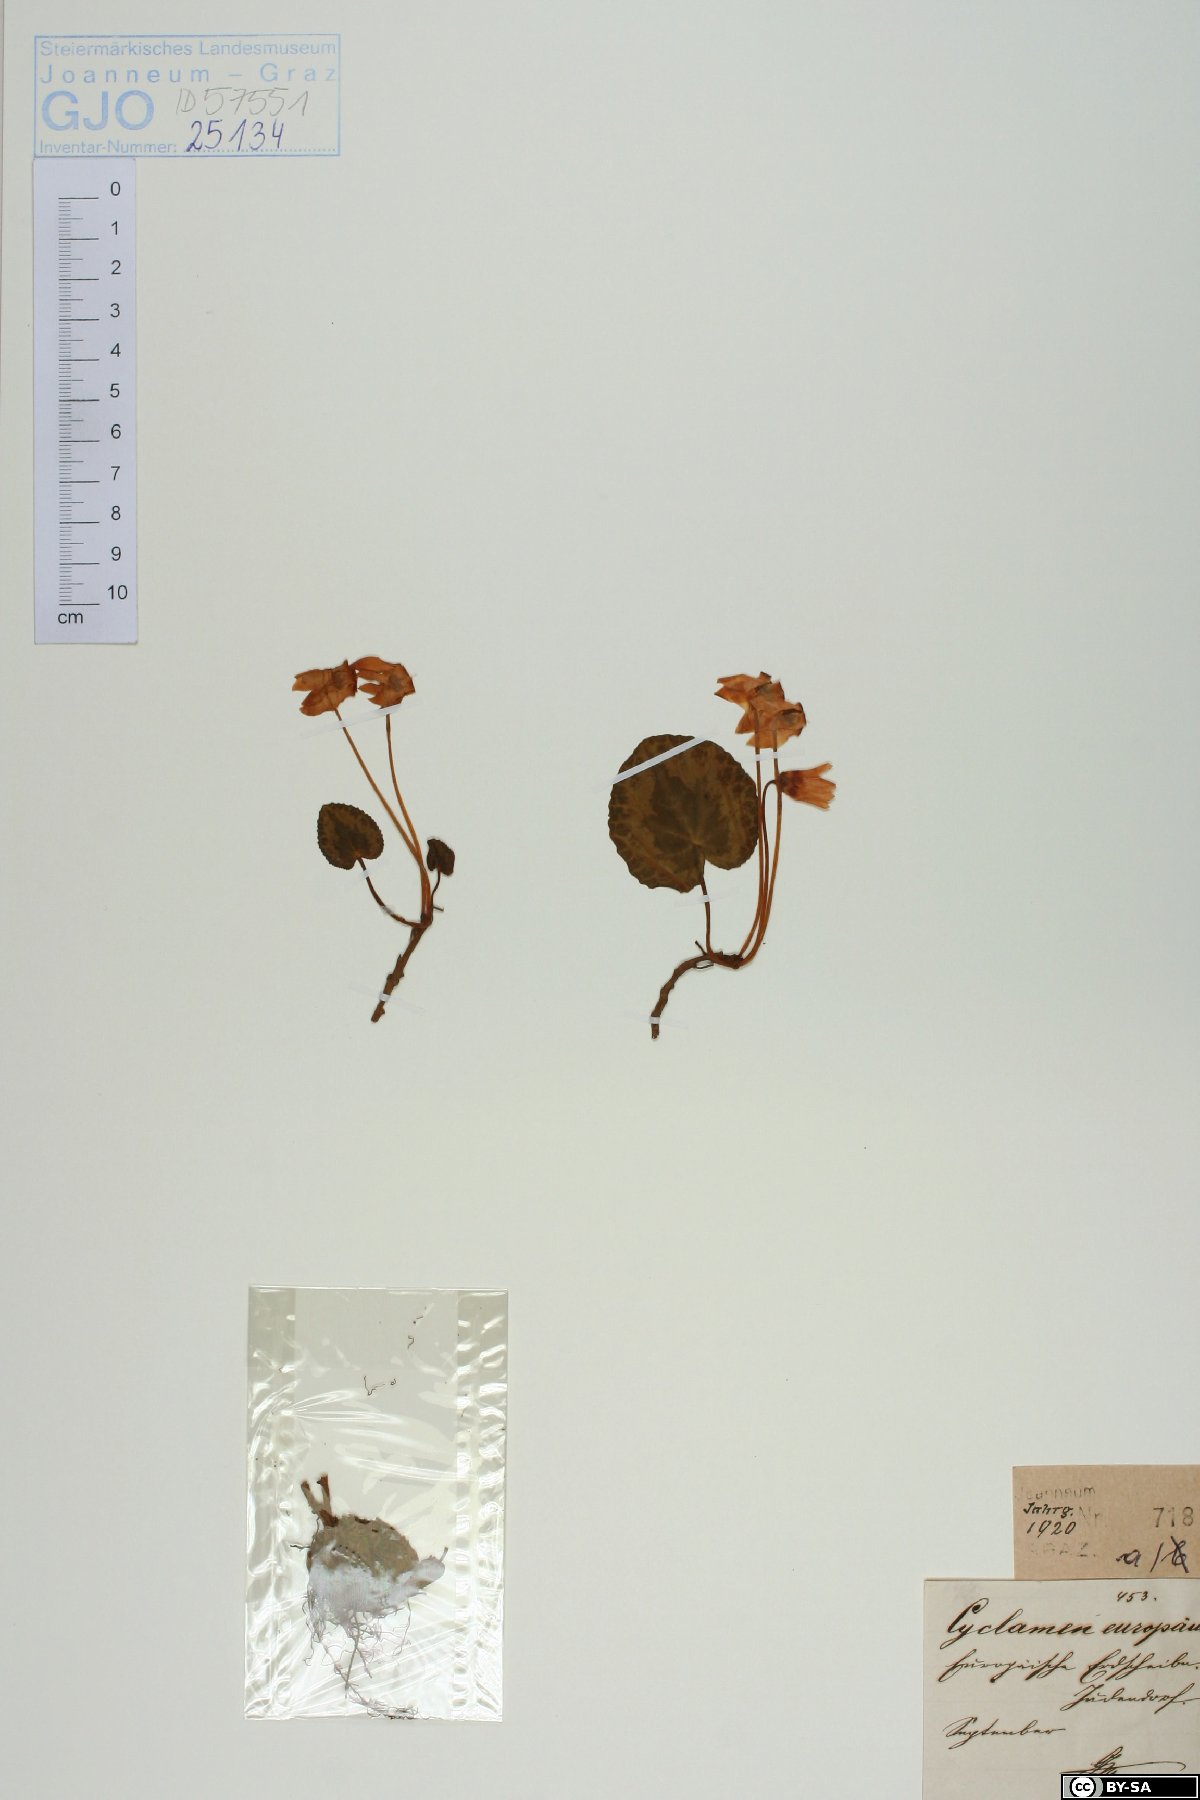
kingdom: Plantae
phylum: Tracheophyta
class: Magnoliopsida
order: Ericales
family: Primulaceae
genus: Cyclamen
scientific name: Cyclamen purpurascens
